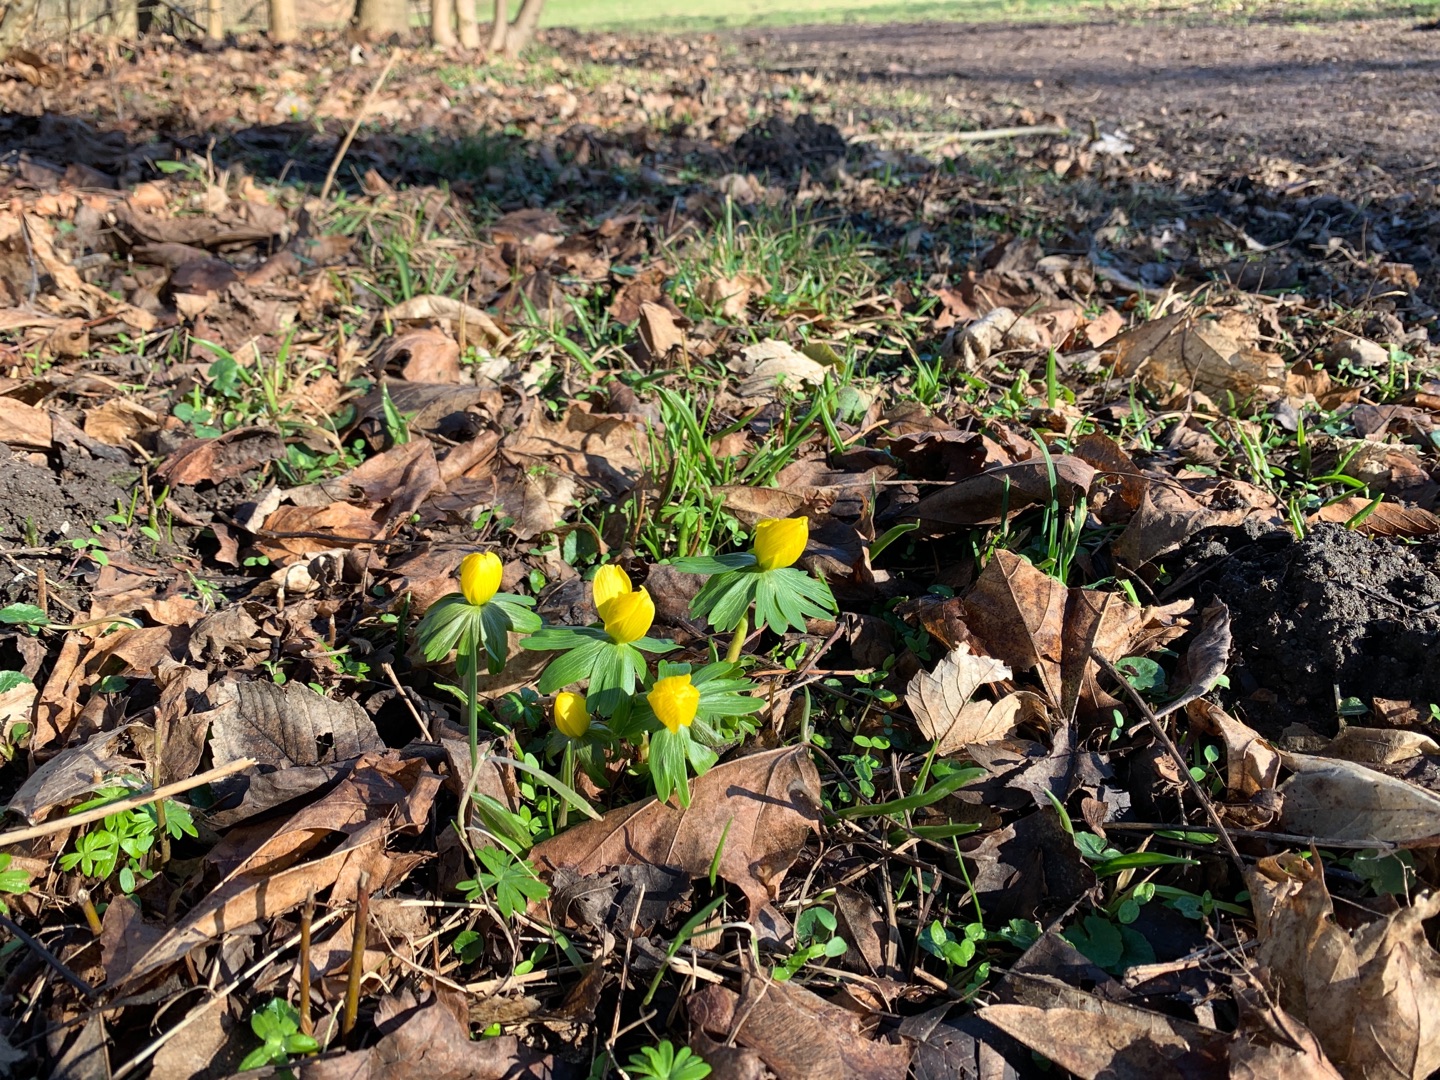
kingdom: Plantae
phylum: Tracheophyta
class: Magnoliopsida
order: Ranunculales
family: Ranunculaceae
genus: Eranthis
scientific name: Eranthis hyemalis
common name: Erantis
